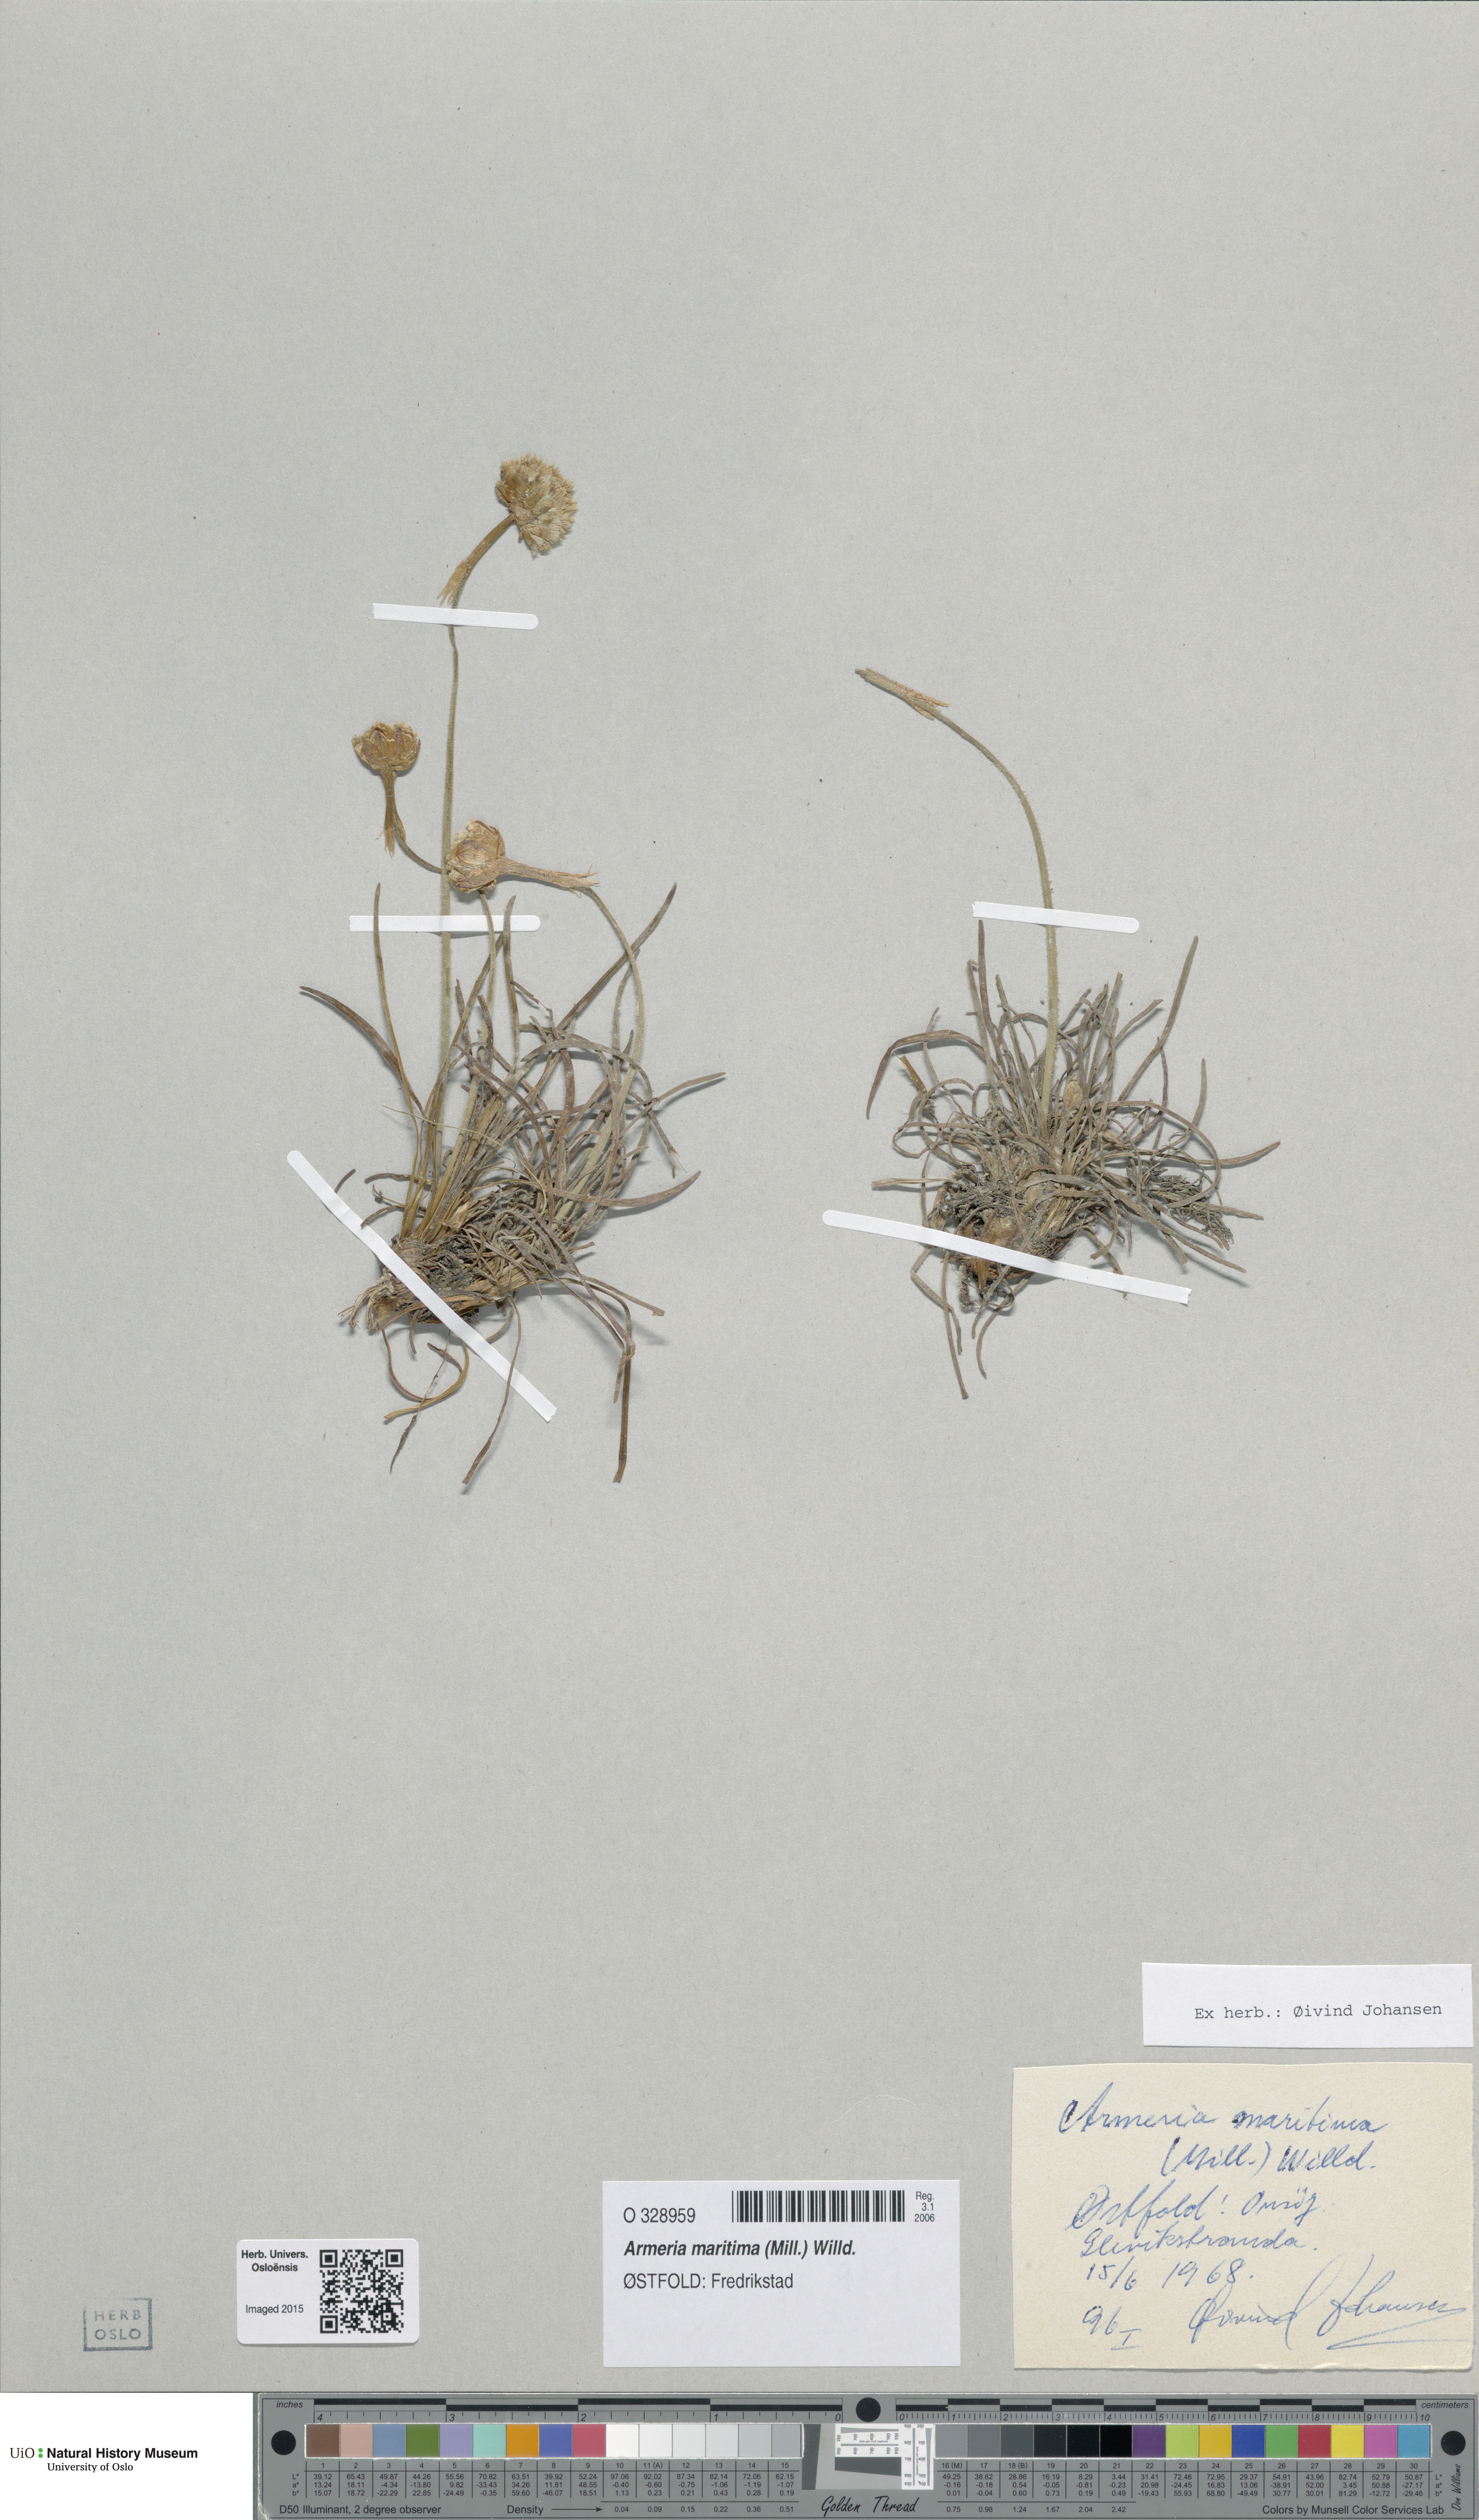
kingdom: Plantae
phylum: Tracheophyta
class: Magnoliopsida
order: Caryophyllales
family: Plumbaginaceae
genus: Armeria
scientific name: Armeria maritima
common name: Thrift
